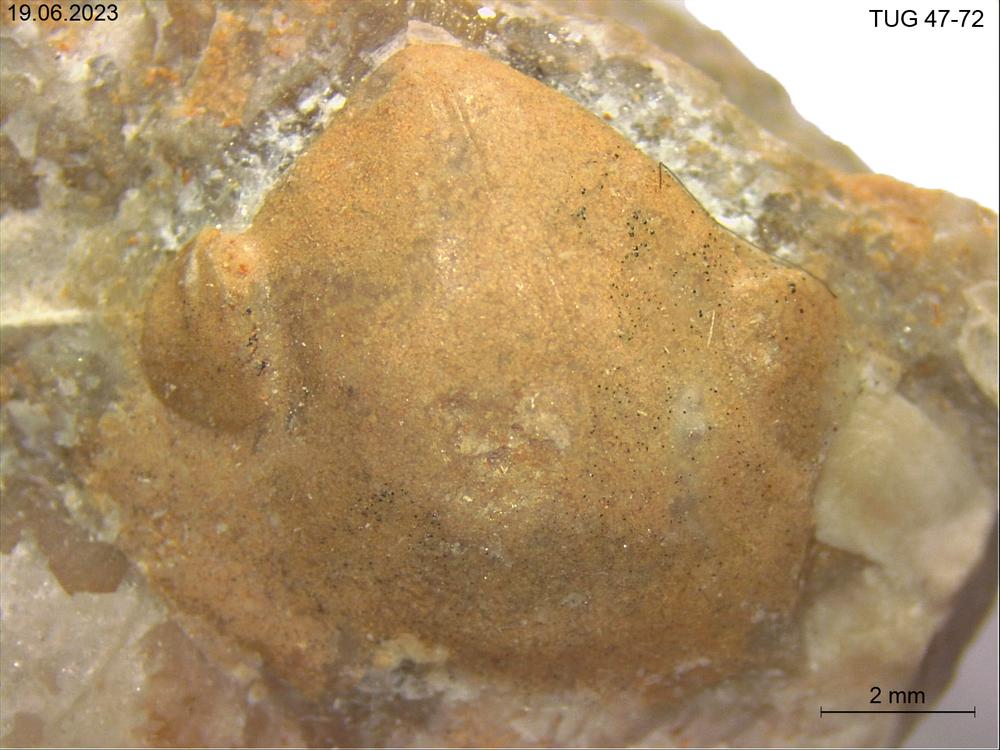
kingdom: Animalia
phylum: Mollusca
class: Bivalvia
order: Solemyida
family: Ctenodontidae
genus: Tancrediopsis
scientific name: Tancrediopsis
